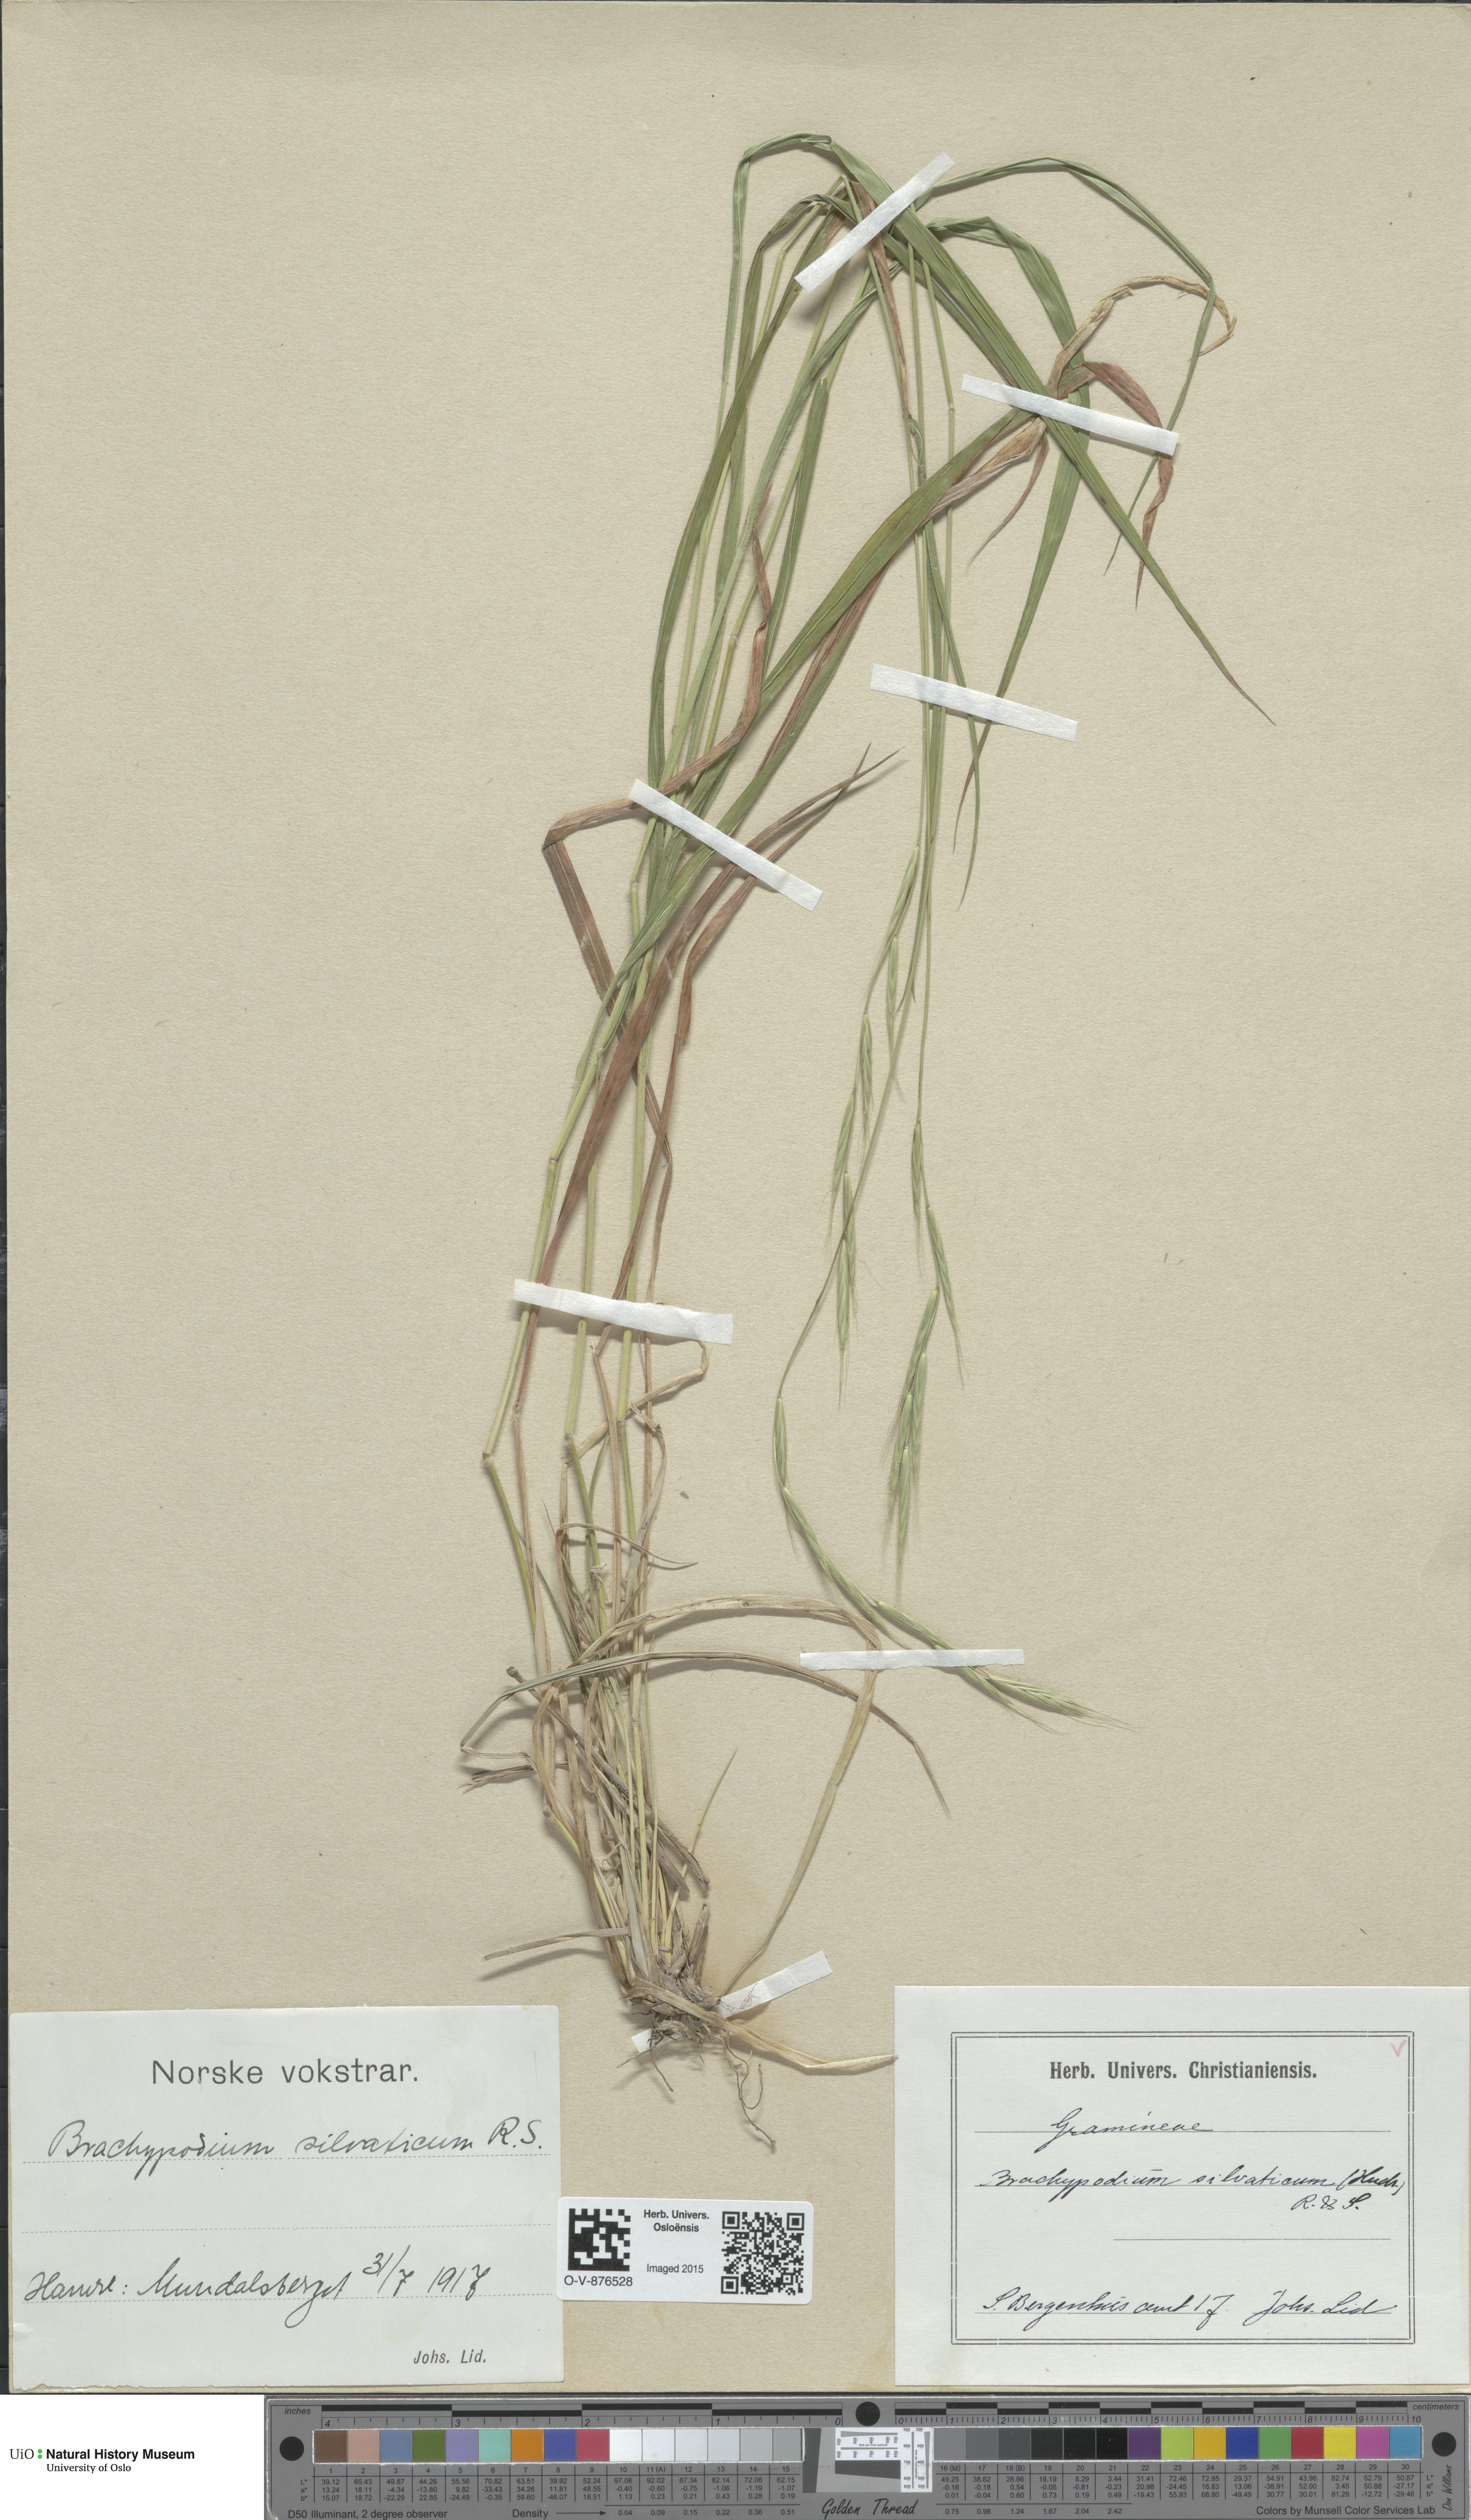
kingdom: Plantae
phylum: Tracheophyta
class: Liliopsida
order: Poales
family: Poaceae
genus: Brachypodium
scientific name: Brachypodium sylvaticum
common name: False-brome
